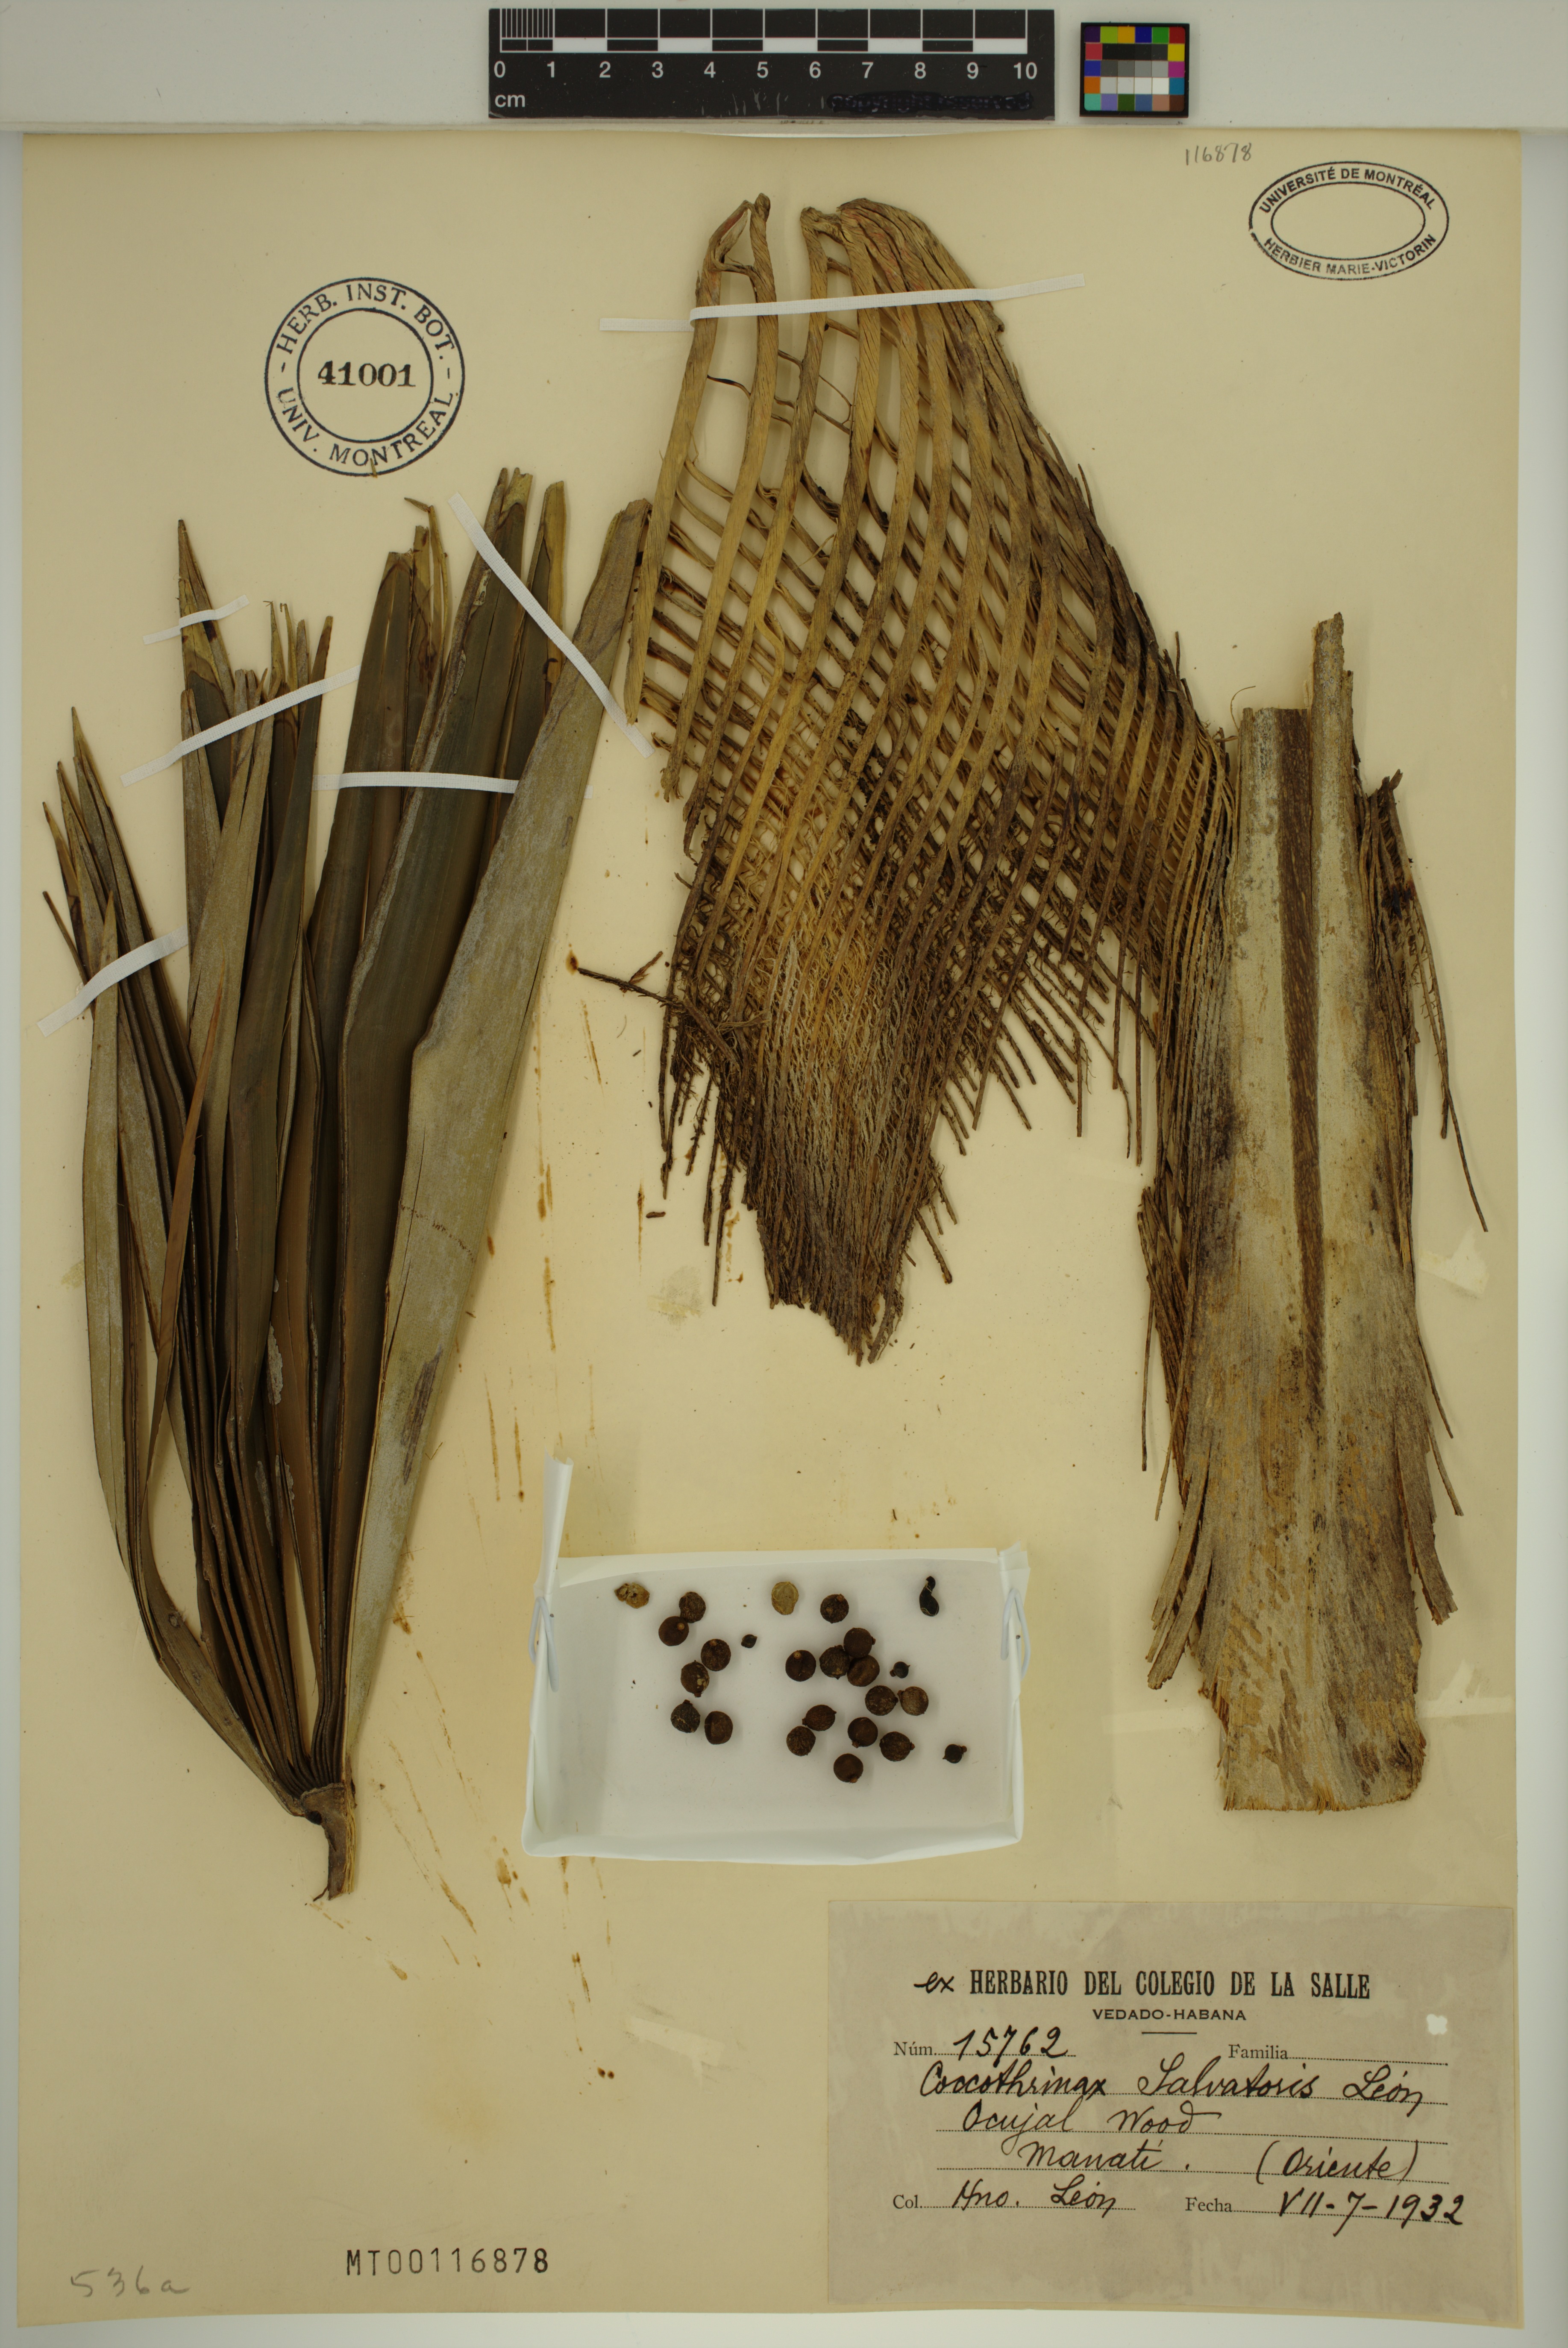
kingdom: Plantae
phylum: Tracheophyta
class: Liliopsida
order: Arecales
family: Arecaceae
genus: Coccothrinax
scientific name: Coccothrinax salvatoris
